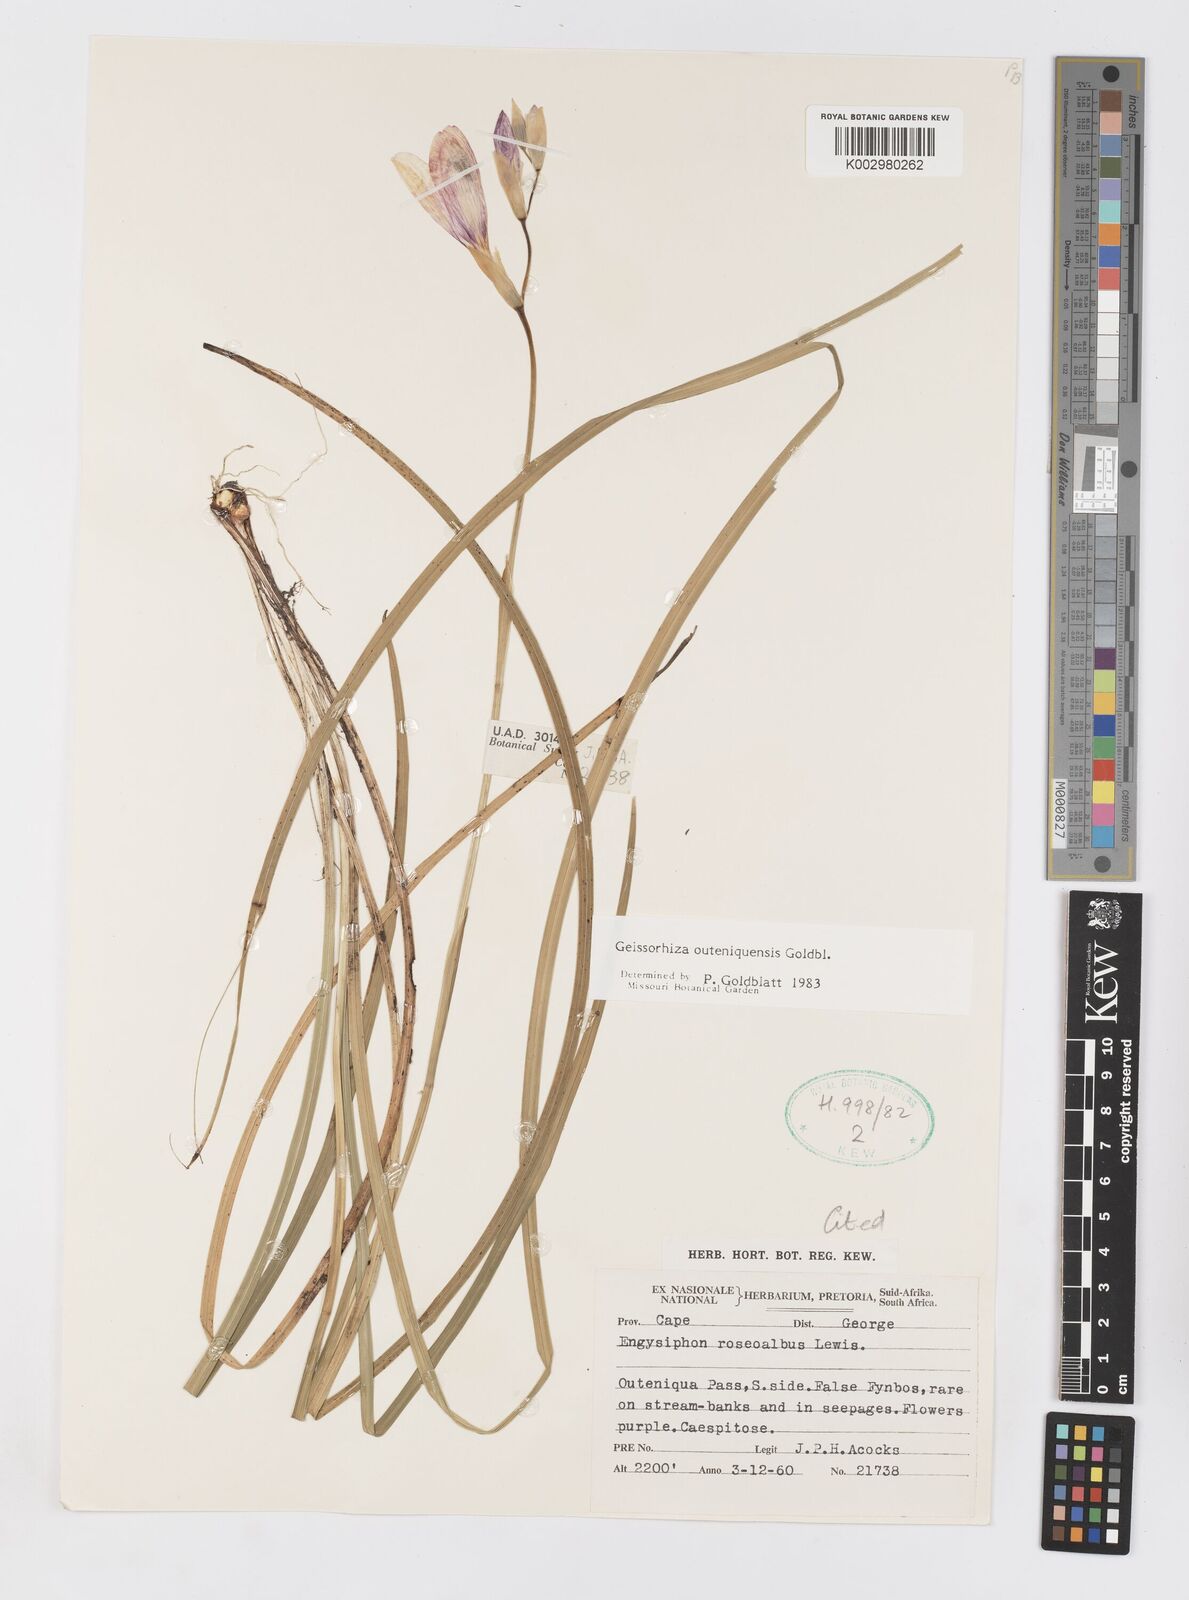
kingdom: Plantae
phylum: Tracheophyta
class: Liliopsida
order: Asparagales
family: Iridaceae
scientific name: Iridaceae
